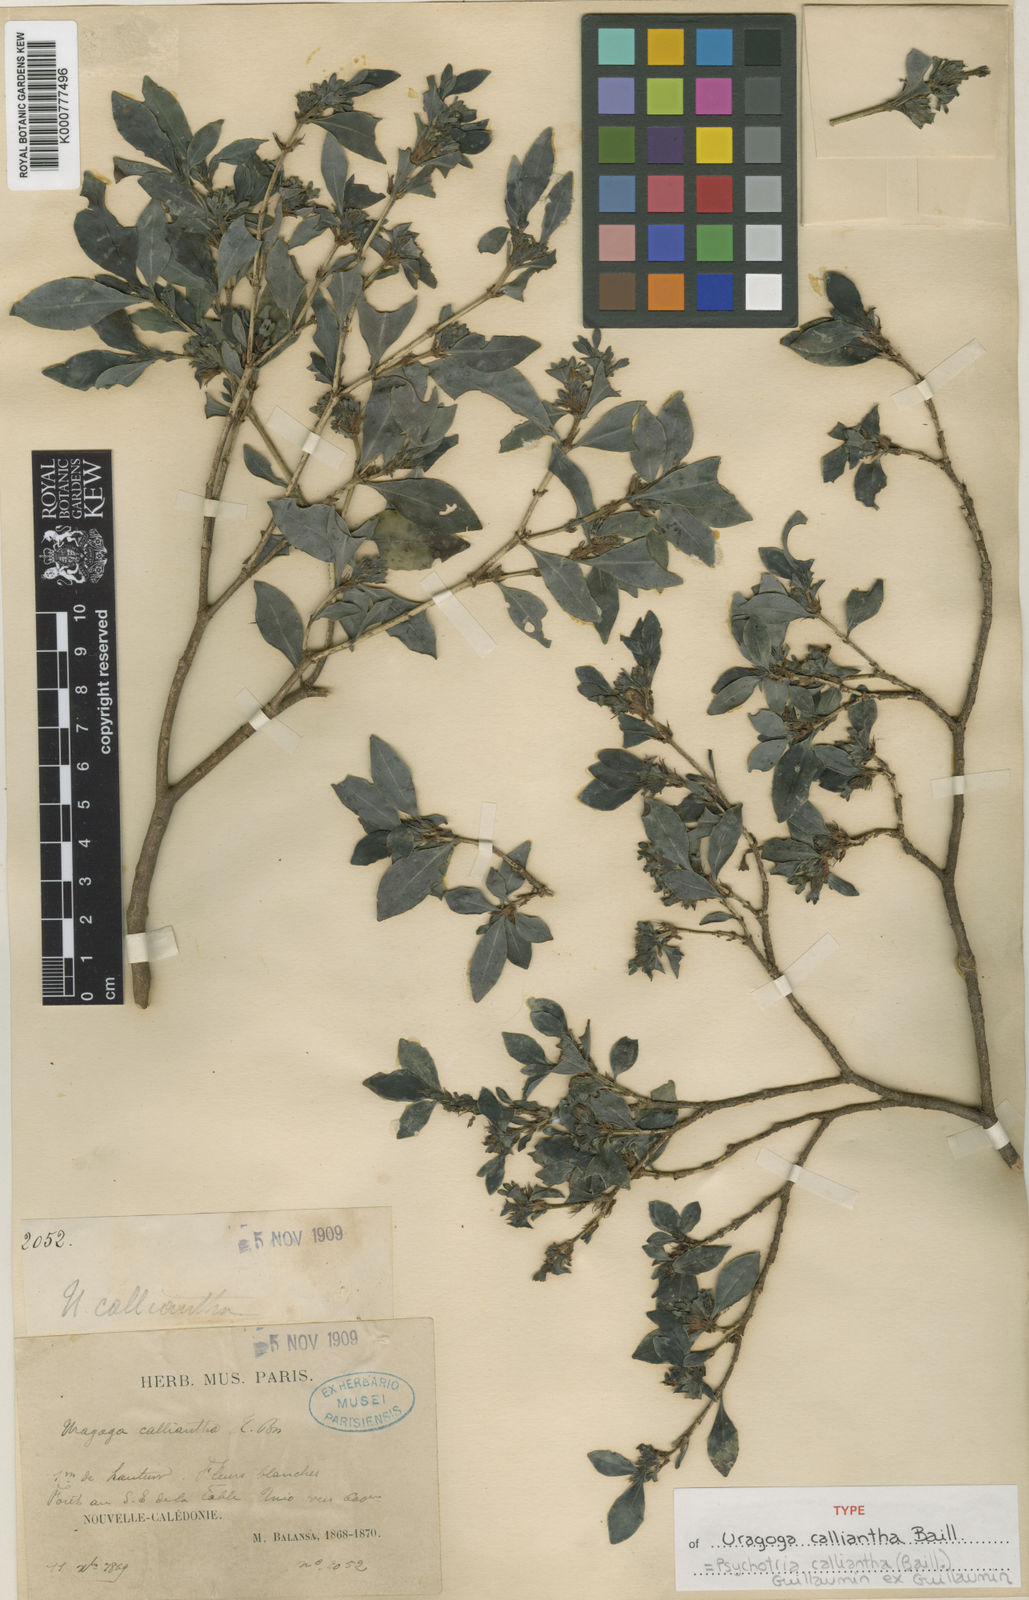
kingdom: Plantae
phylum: Tracheophyta
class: Magnoliopsida
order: Gentianales
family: Rubiaceae
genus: Psychotria
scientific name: Psychotria calliantha
